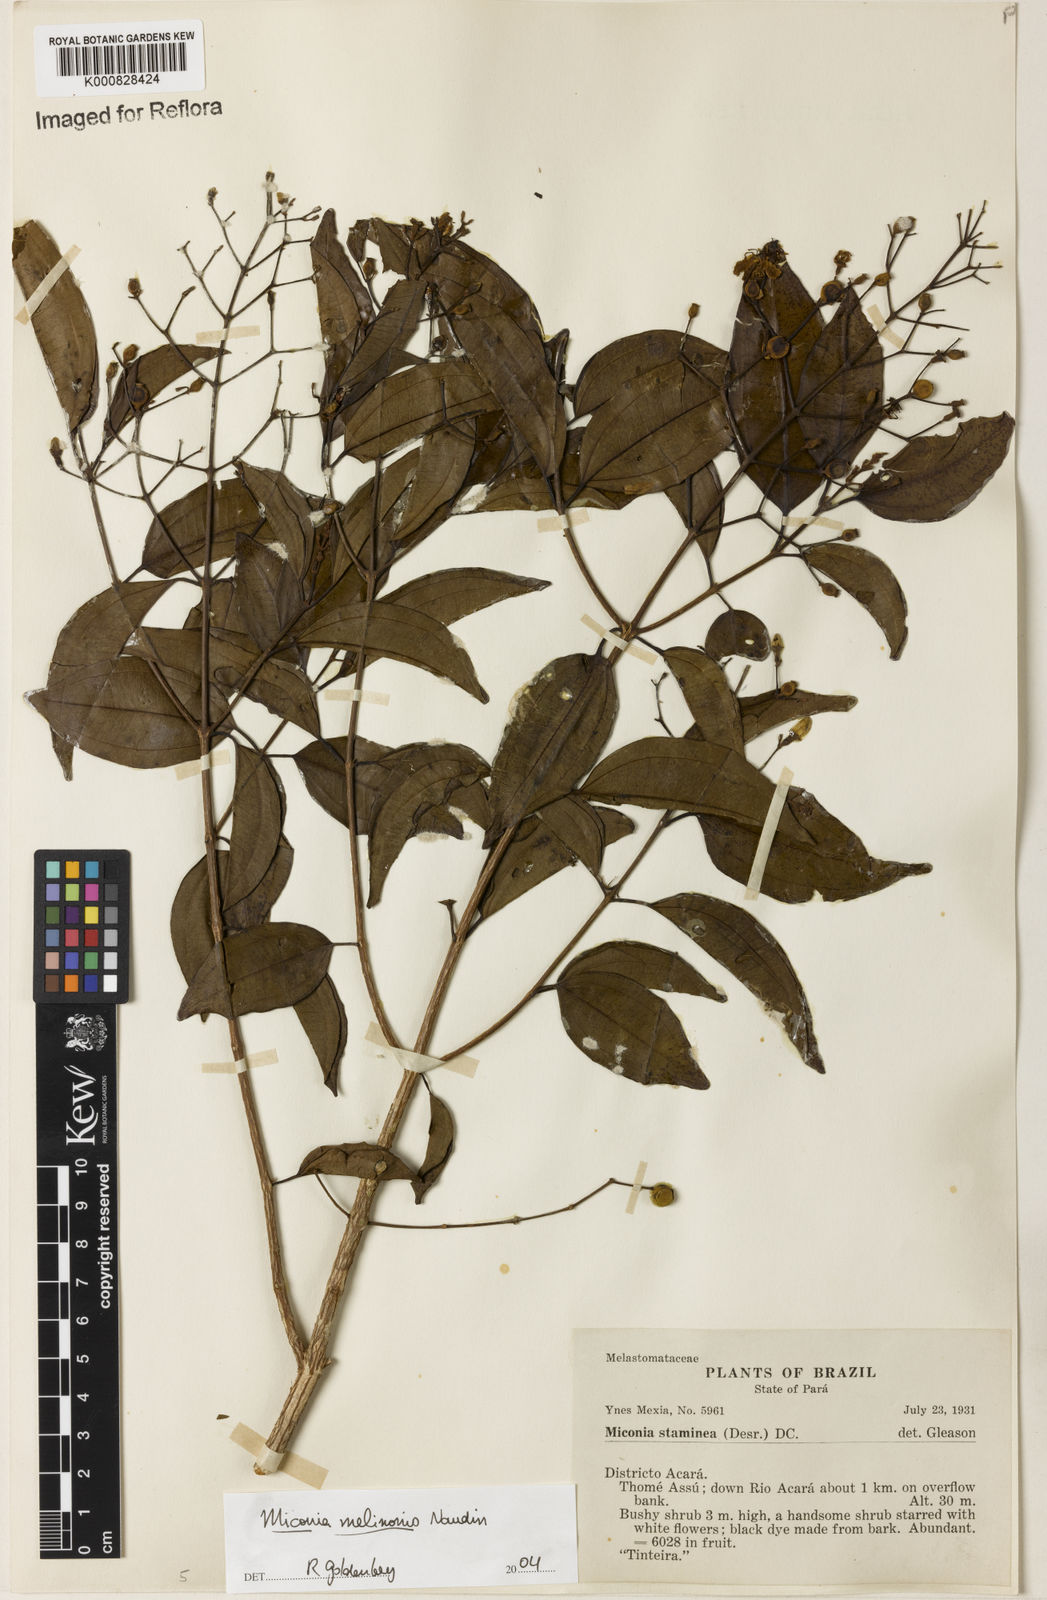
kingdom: Plantae
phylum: Tracheophyta
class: Magnoliopsida
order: Myrtales
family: Melastomataceae
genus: Miconia
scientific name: Miconia melinonis
